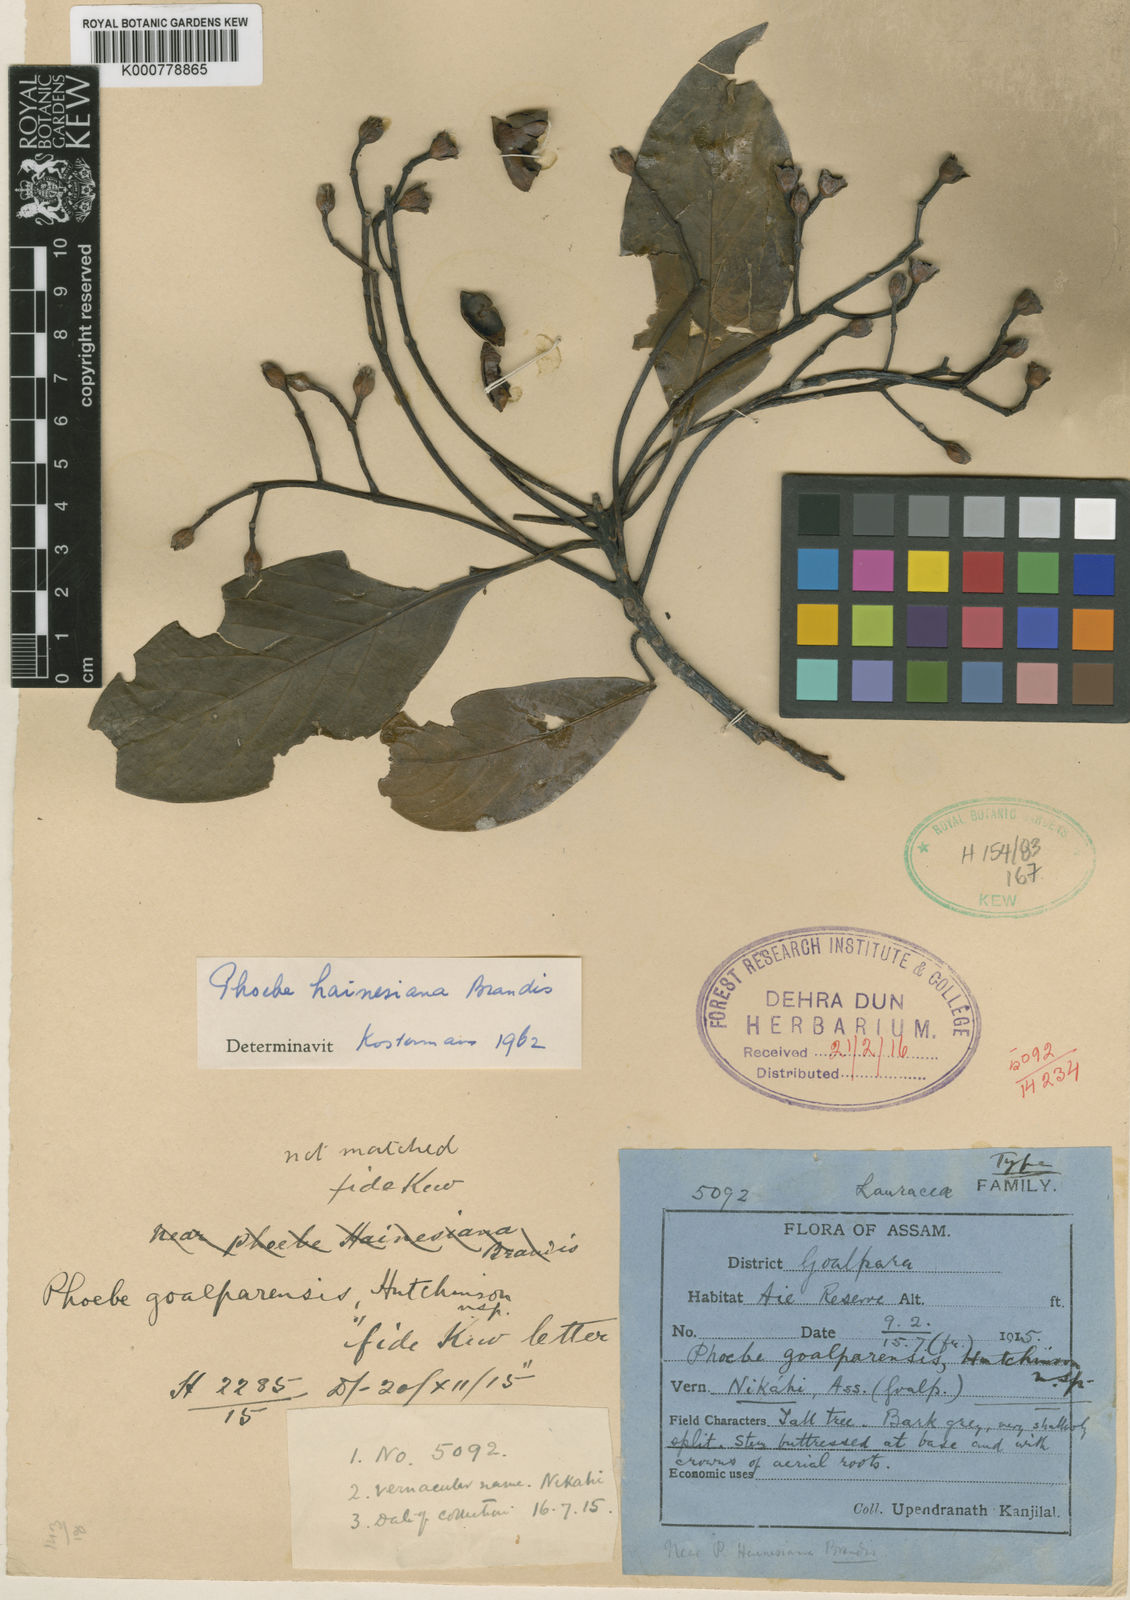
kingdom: Plantae
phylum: Tracheophyta
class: Magnoliopsida
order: Laurales
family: Lauraceae
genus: Phoebe
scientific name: Phoebe bootanica
